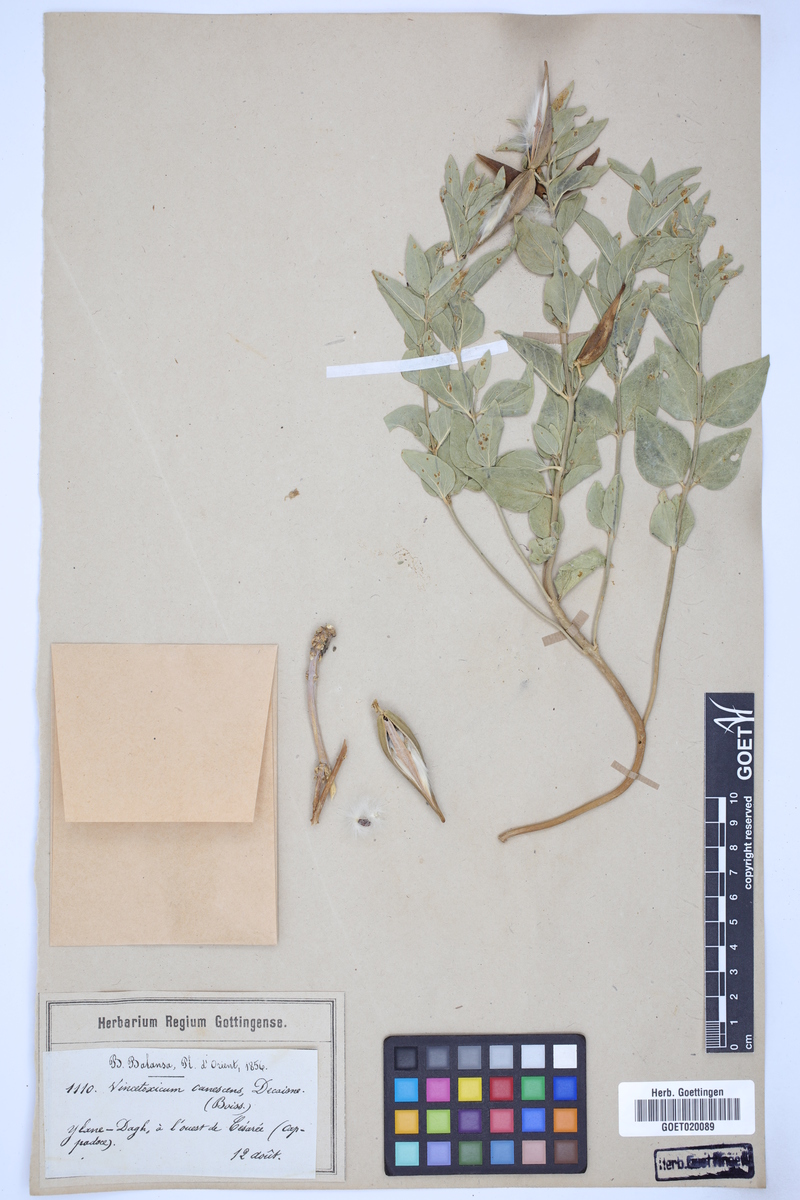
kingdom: Plantae
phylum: Tracheophyta
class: Magnoliopsida
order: Gentianales
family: Apocynaceae
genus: Vincetoxicum
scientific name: Vincetoxicum canescens
